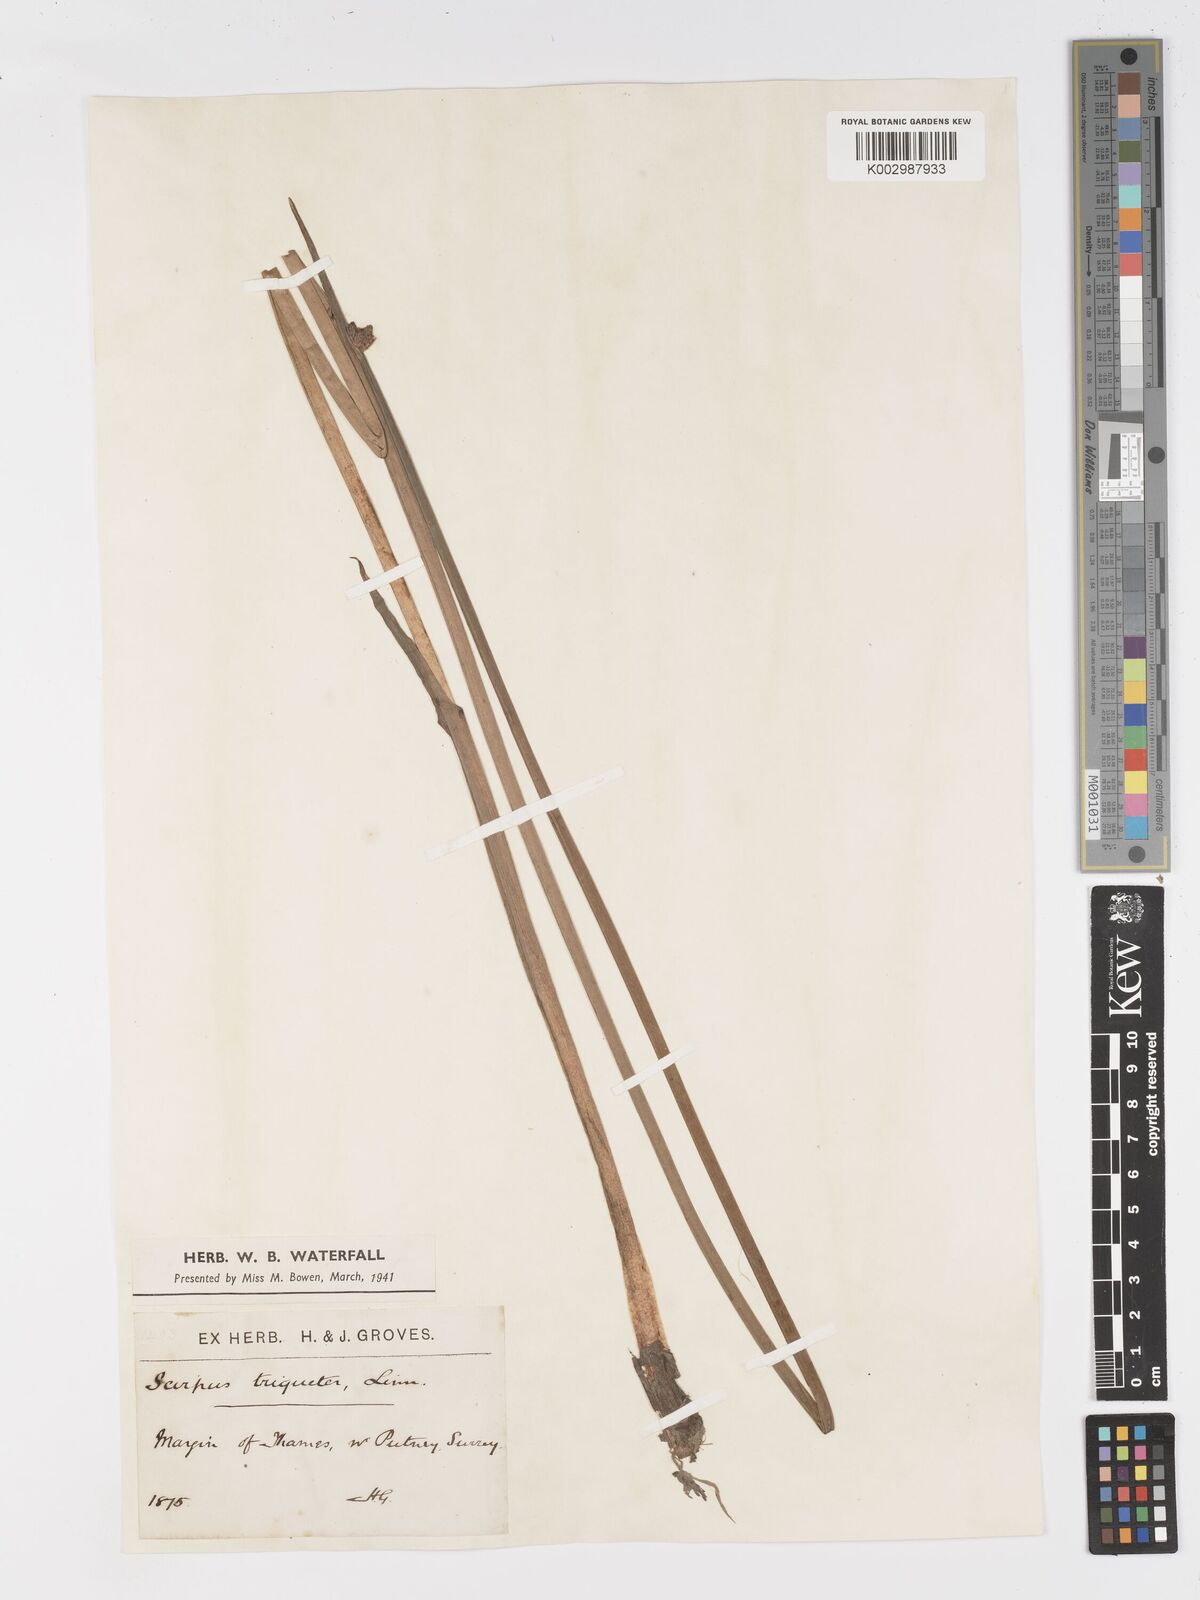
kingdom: Plantae
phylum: Tracheophyta
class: Liliopsida
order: Poales
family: Cyperaceae
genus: Schoenoplectus
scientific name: Schoenoplectus triqueter
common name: Triangular club-rush
